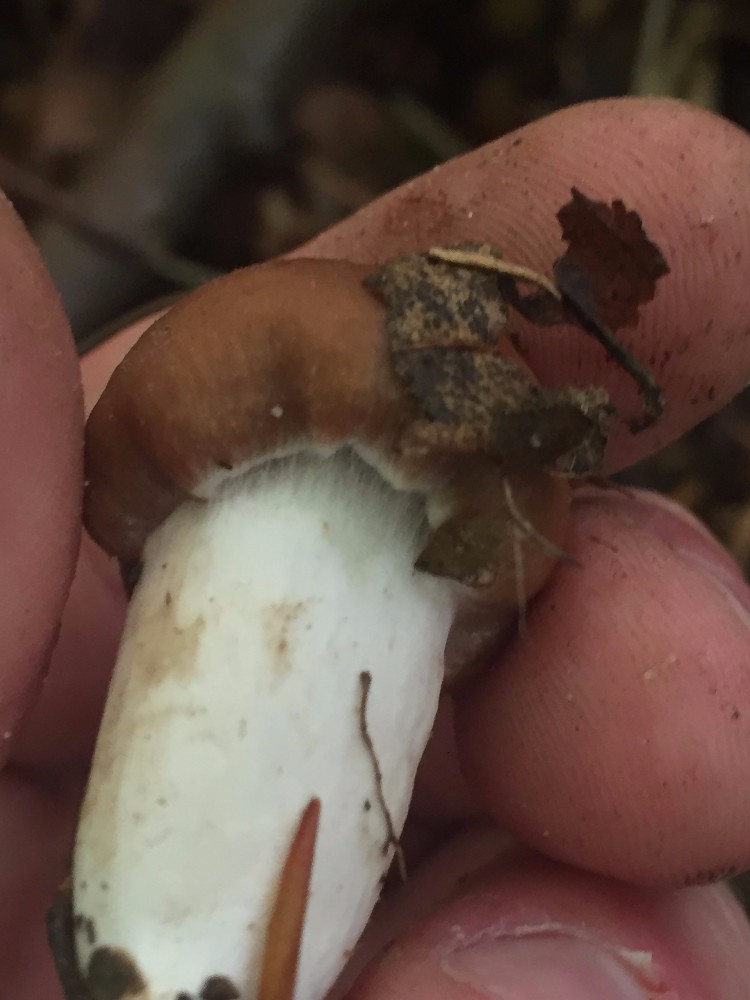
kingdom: Fungi
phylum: Basidiomycota
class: Agaricomycetes
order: Agaricales
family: Cortinariaceae
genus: Cortinarius
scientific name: Cortinarius
